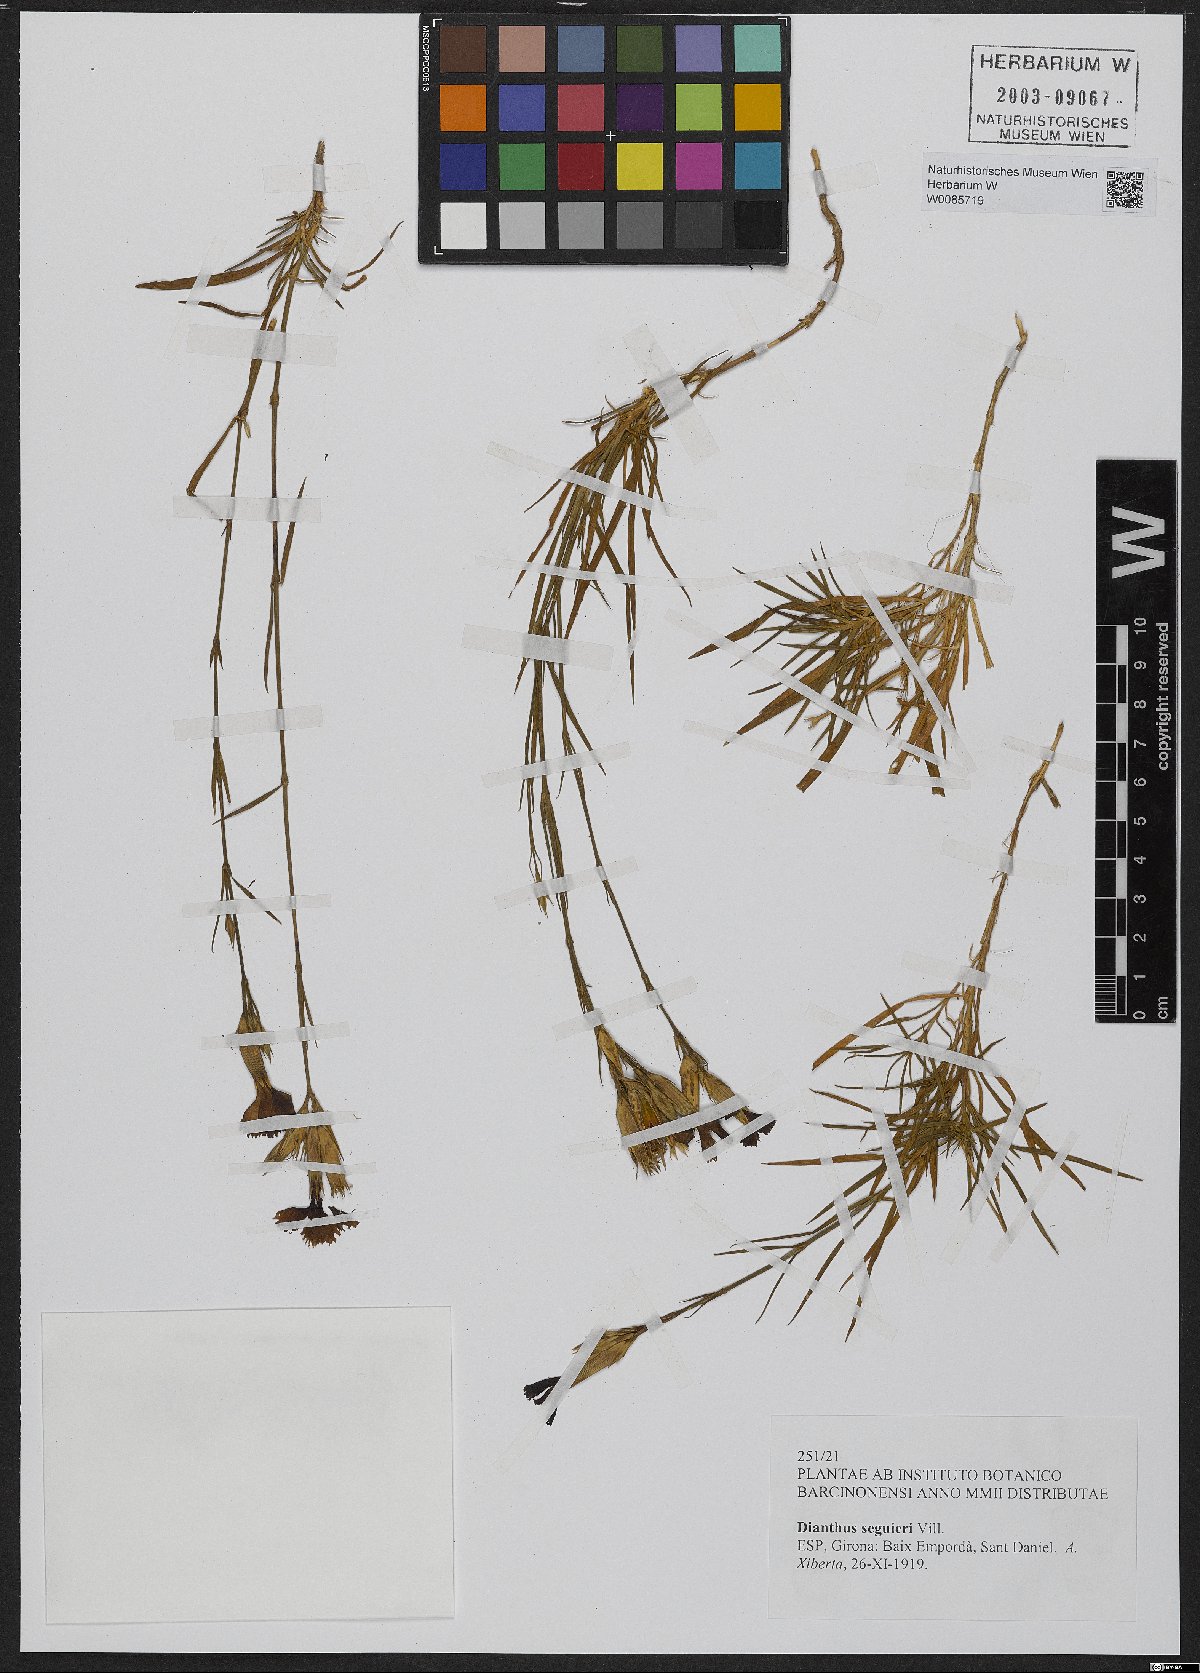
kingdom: Plantae
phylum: Tracheophyta
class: Magnoliopsida
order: Caryophyllales
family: Caryophyllaceae
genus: Dianthus
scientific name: Dianthus seguieri
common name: Ragged pink
